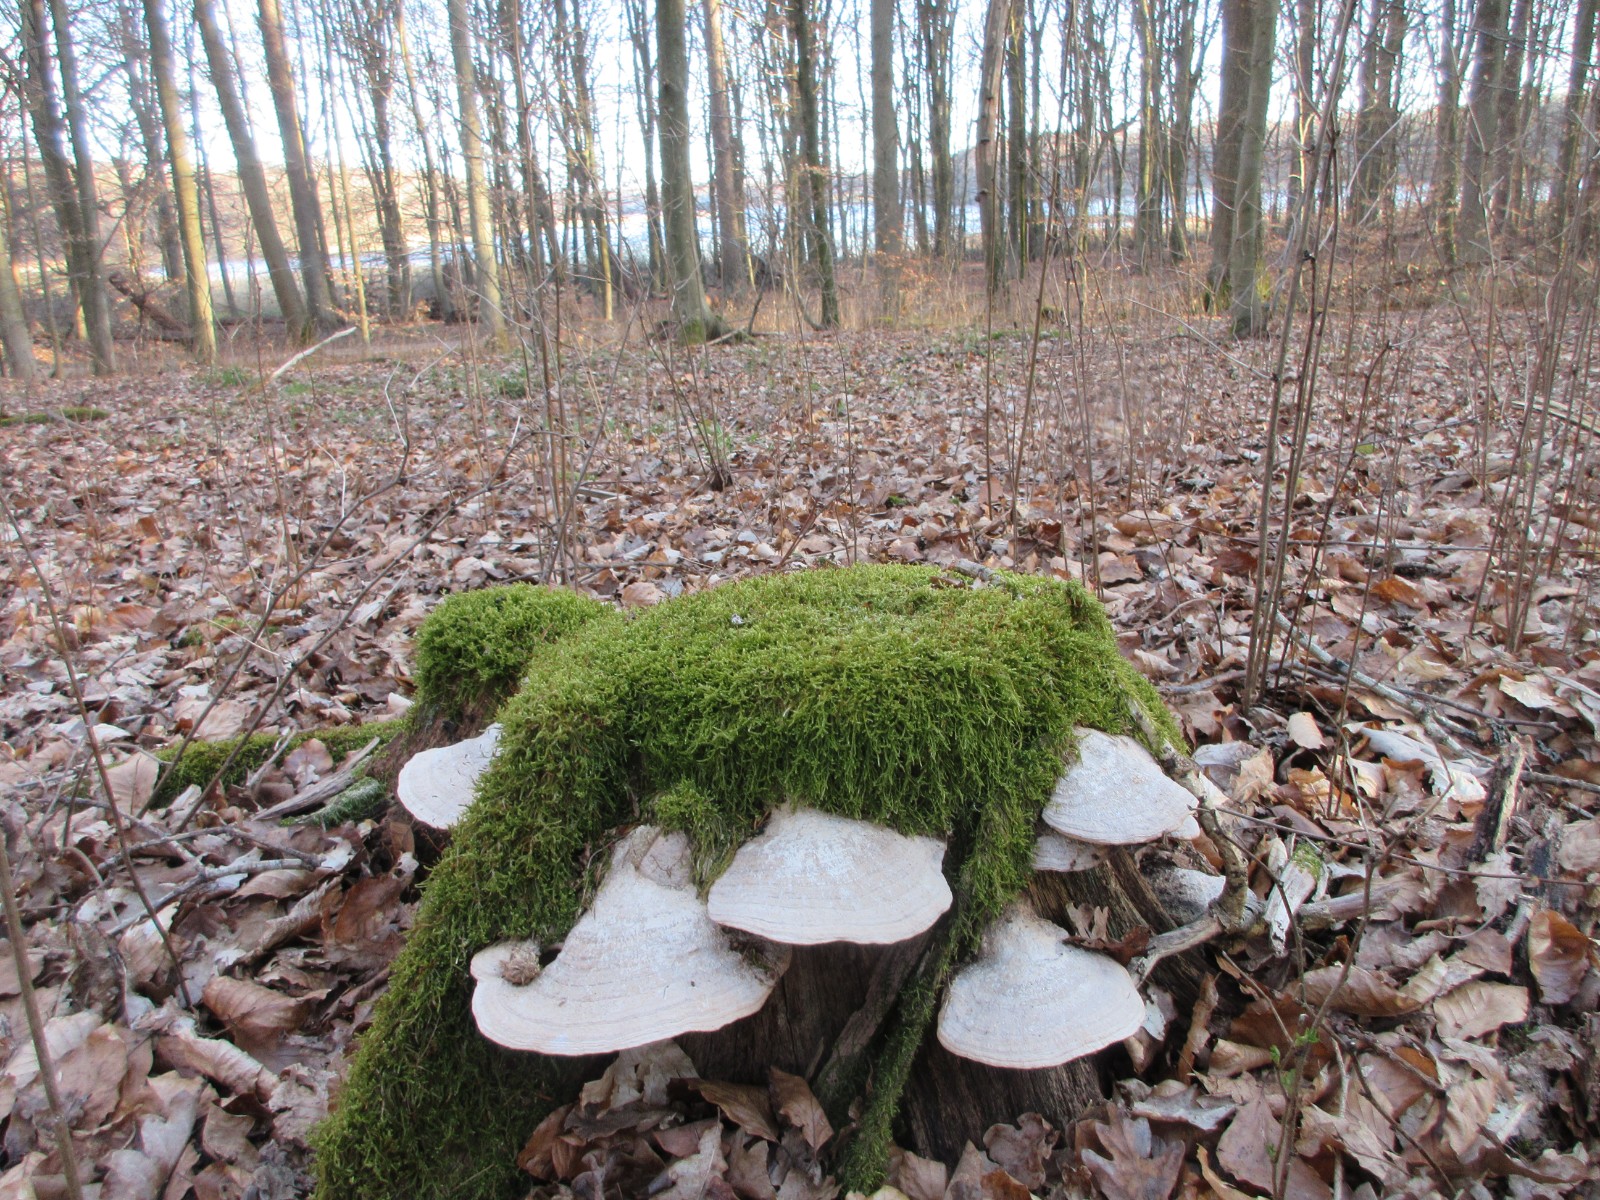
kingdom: Fungi
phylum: Basidiomycota
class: Agaricomycetes
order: Polyporales
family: Fomitopsidaceae
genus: Daedalea
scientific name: Daedalea quercina
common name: ege-labyrintsvamp
